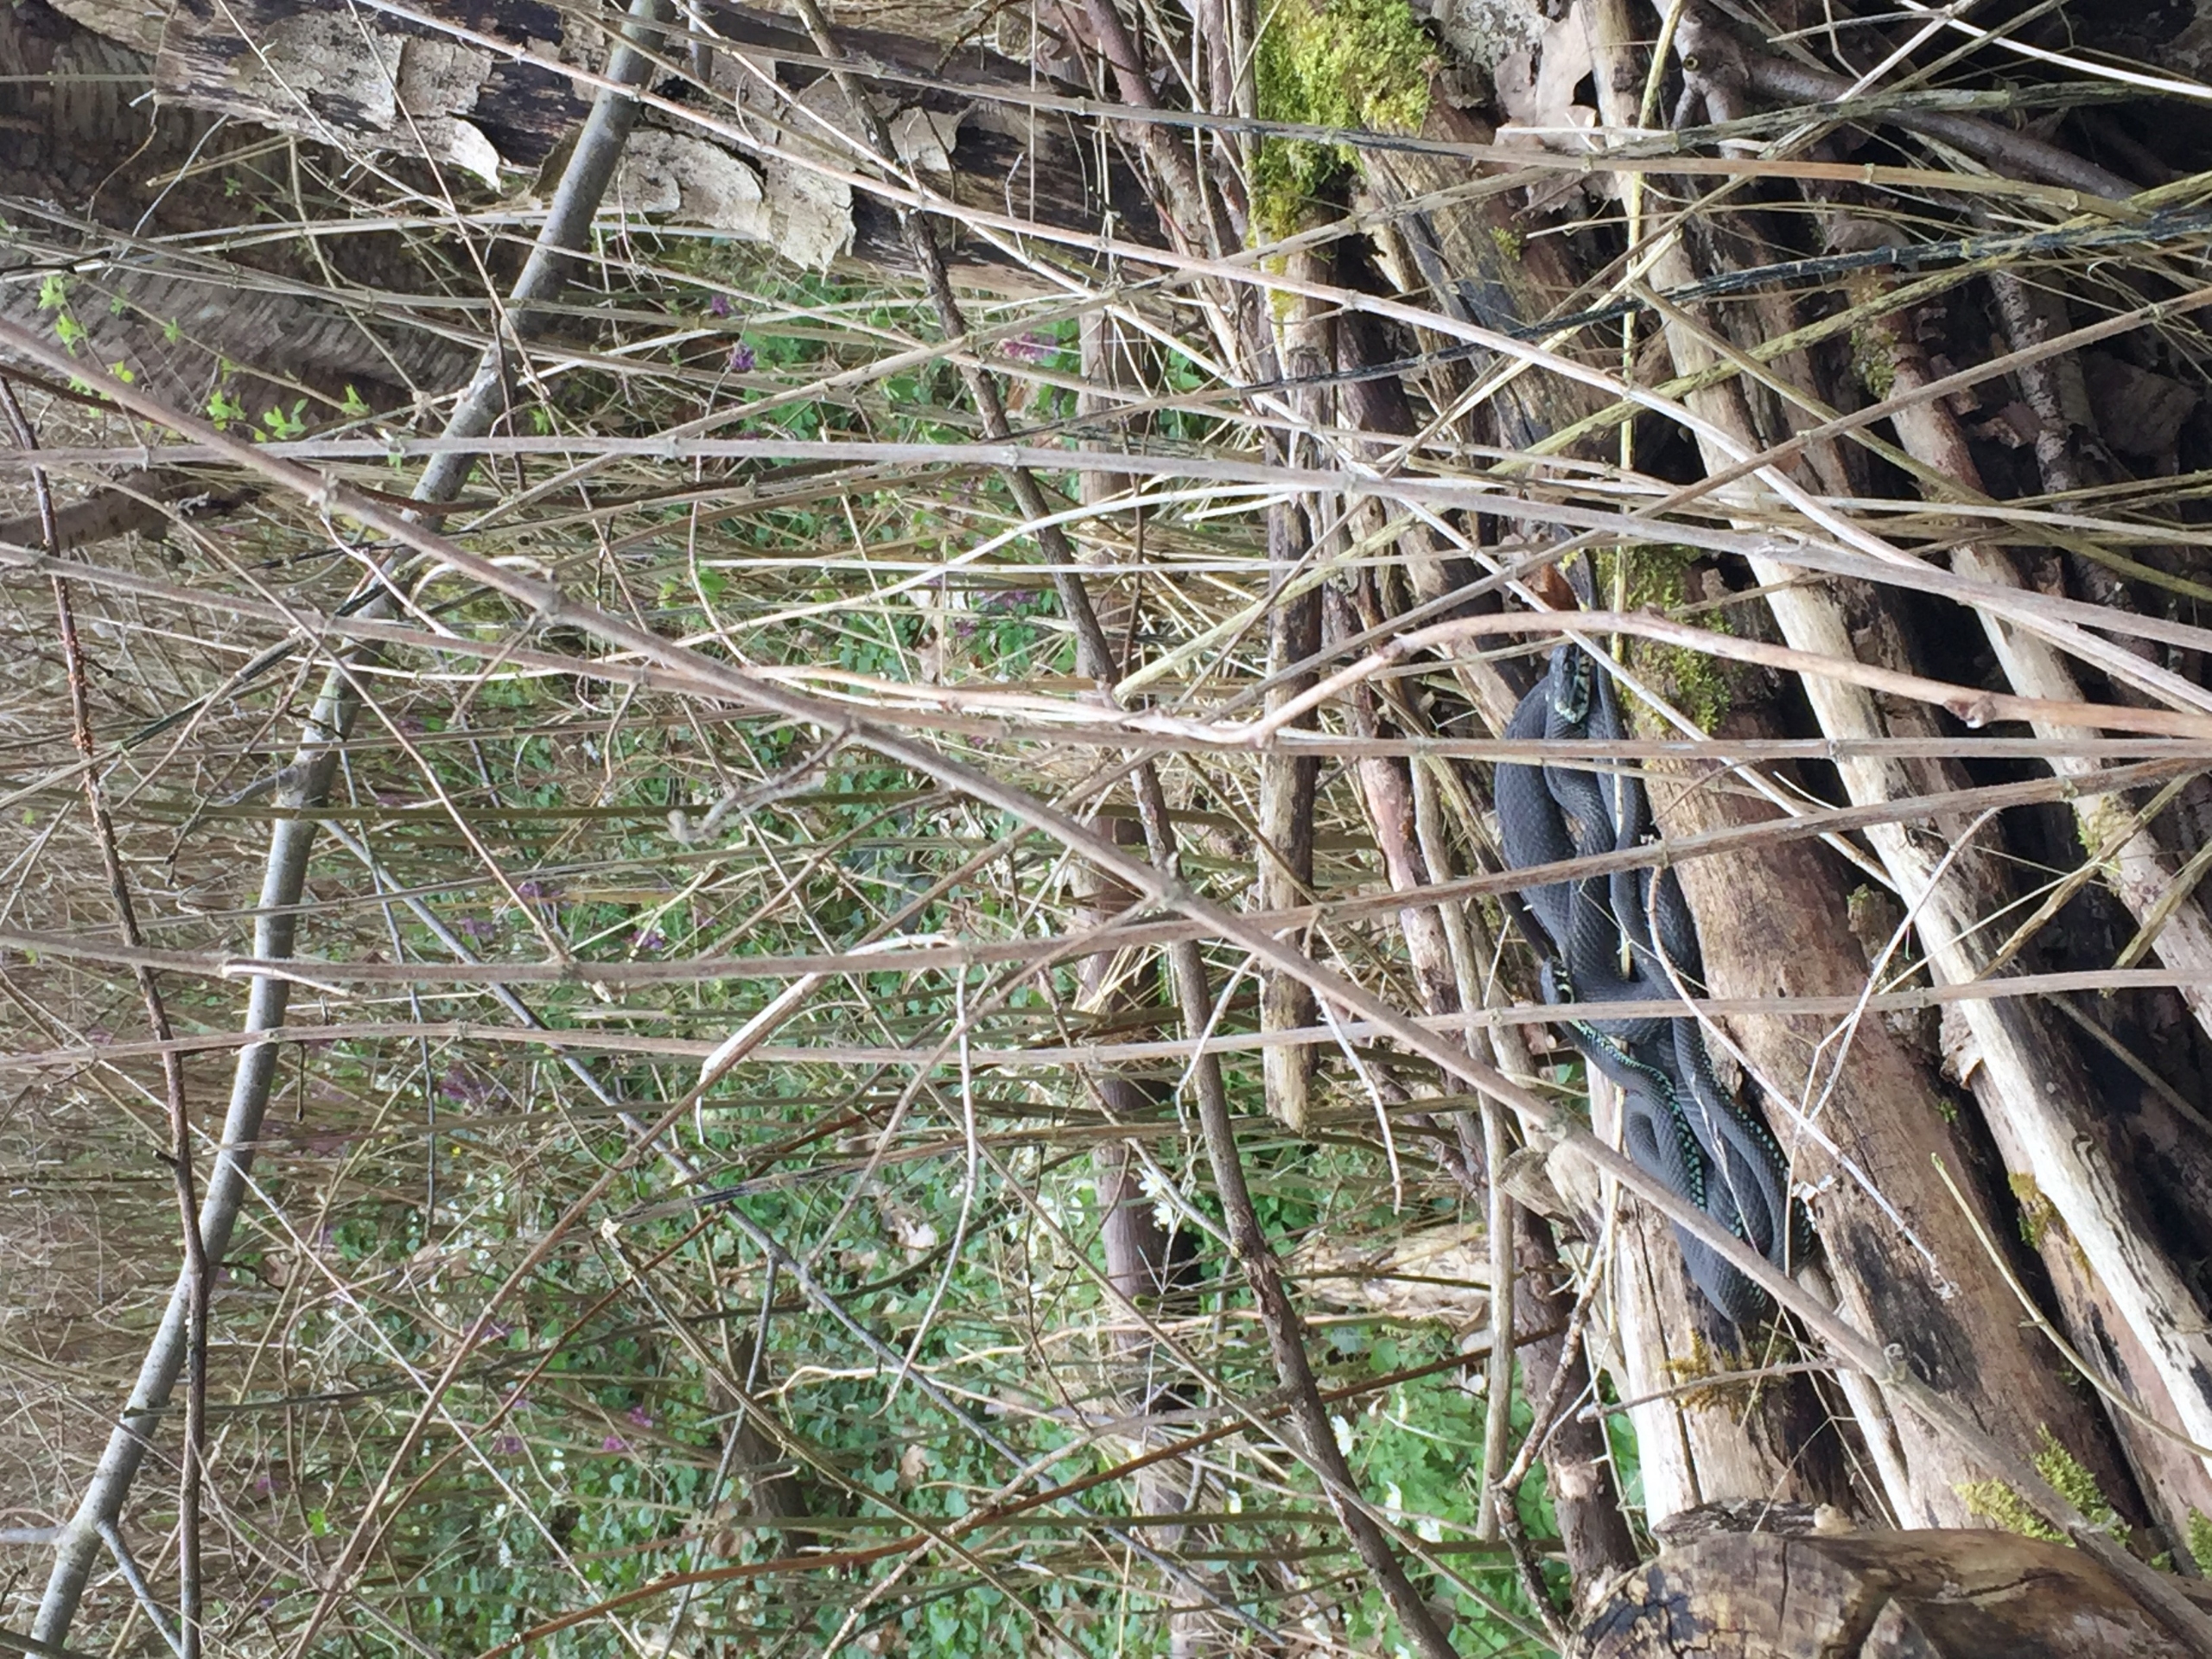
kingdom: Animalia
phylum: Chordata
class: Squamata
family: Colubridae
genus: Natrix
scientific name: Natrix natrix
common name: Snog
